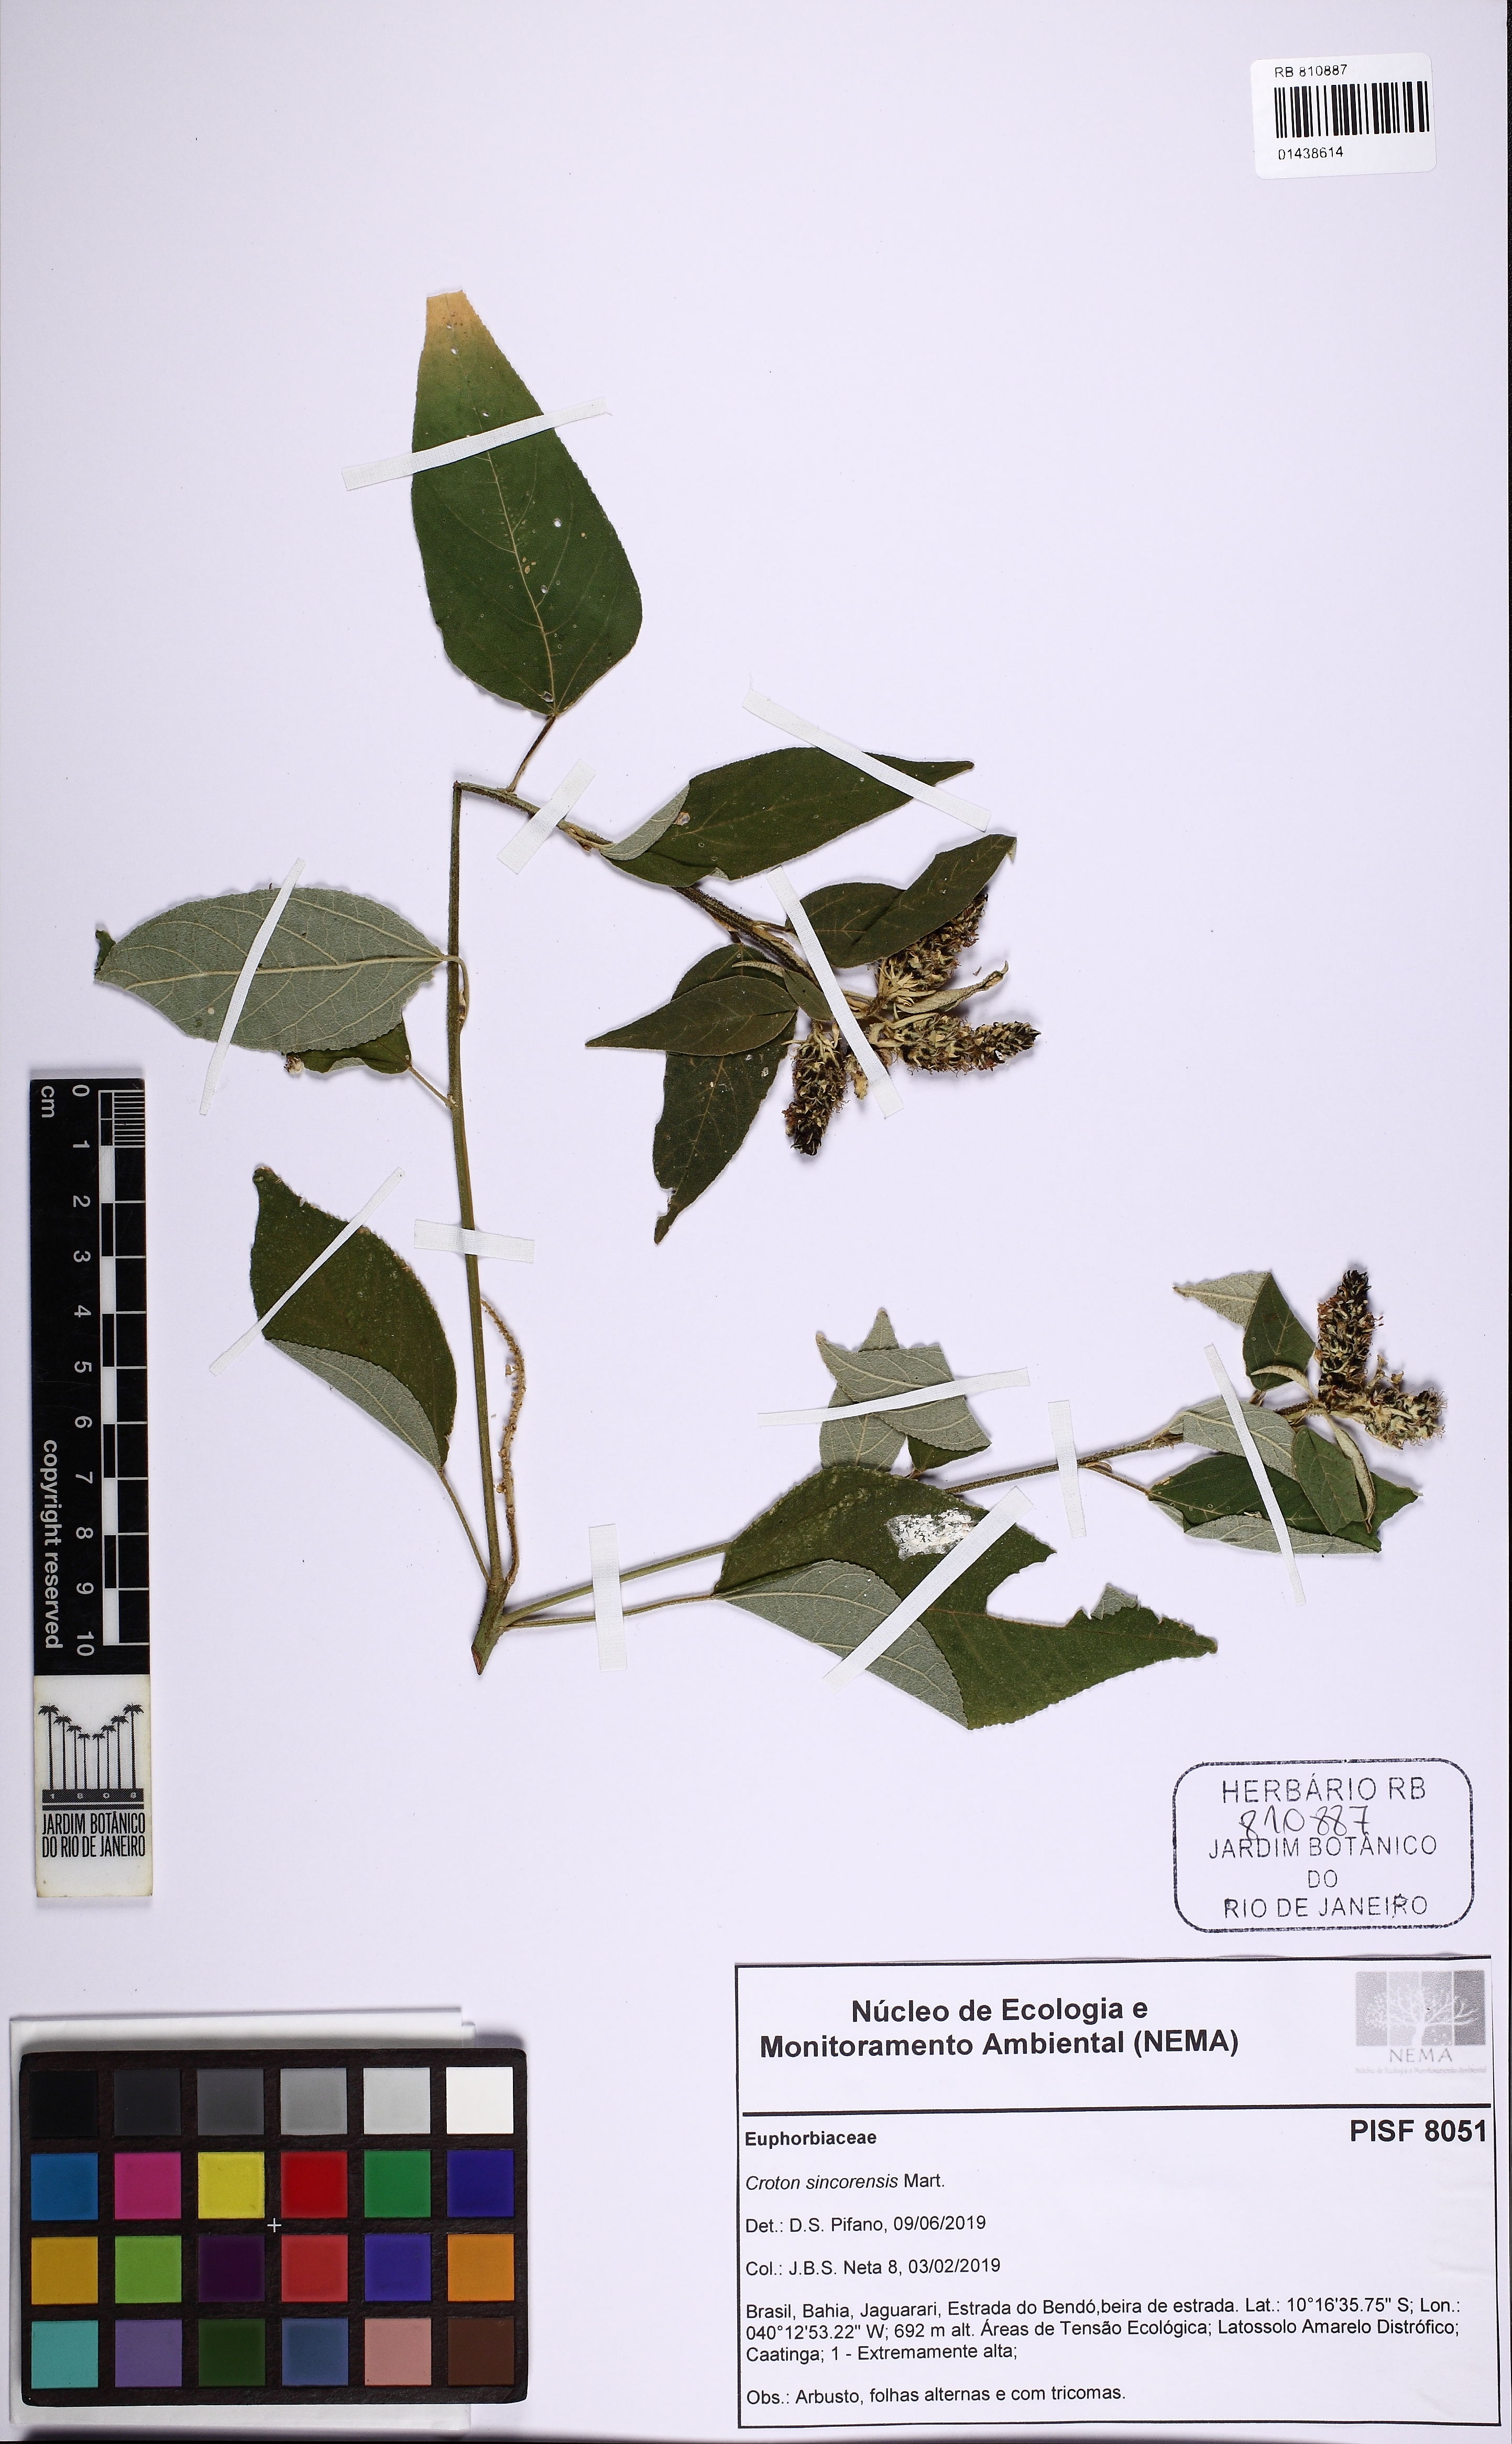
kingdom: Plantae
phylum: Tracheophyta
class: Magnoliopsida
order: Malpighiales
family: Euphorbiaceae
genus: Croton
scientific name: Croton sincorensis
